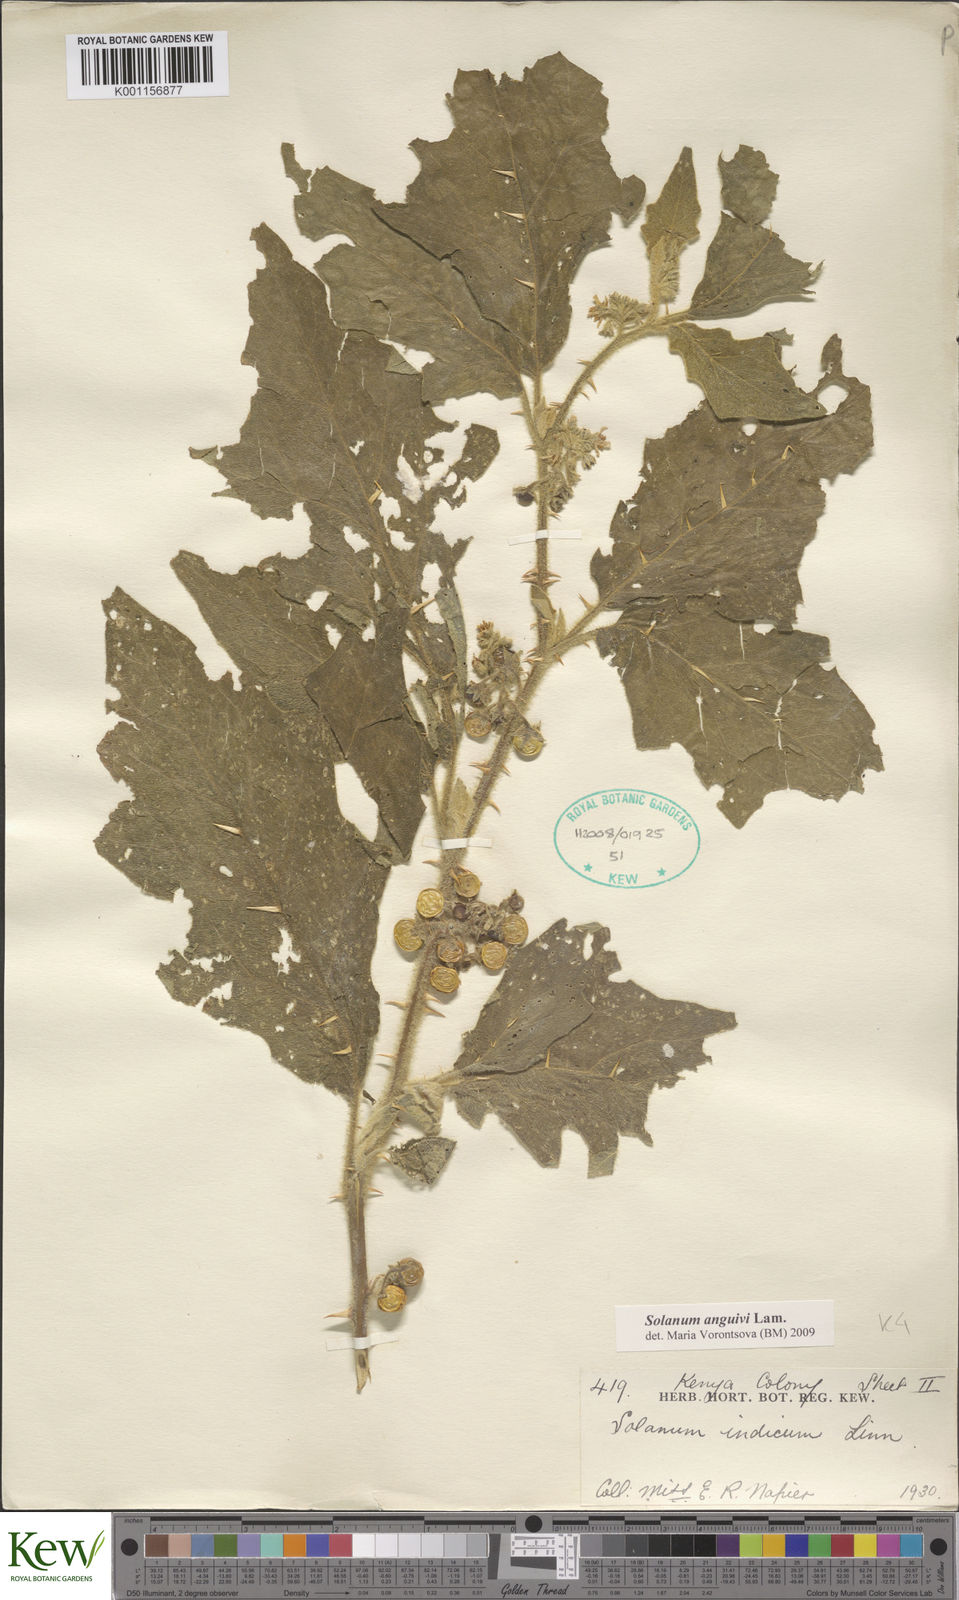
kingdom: Plantae
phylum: Tracheophyta
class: Magnoliopsida
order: Solanales
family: Solanaceae
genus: Solanum
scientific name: Solanum anguivi
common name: Forest bitterberry
